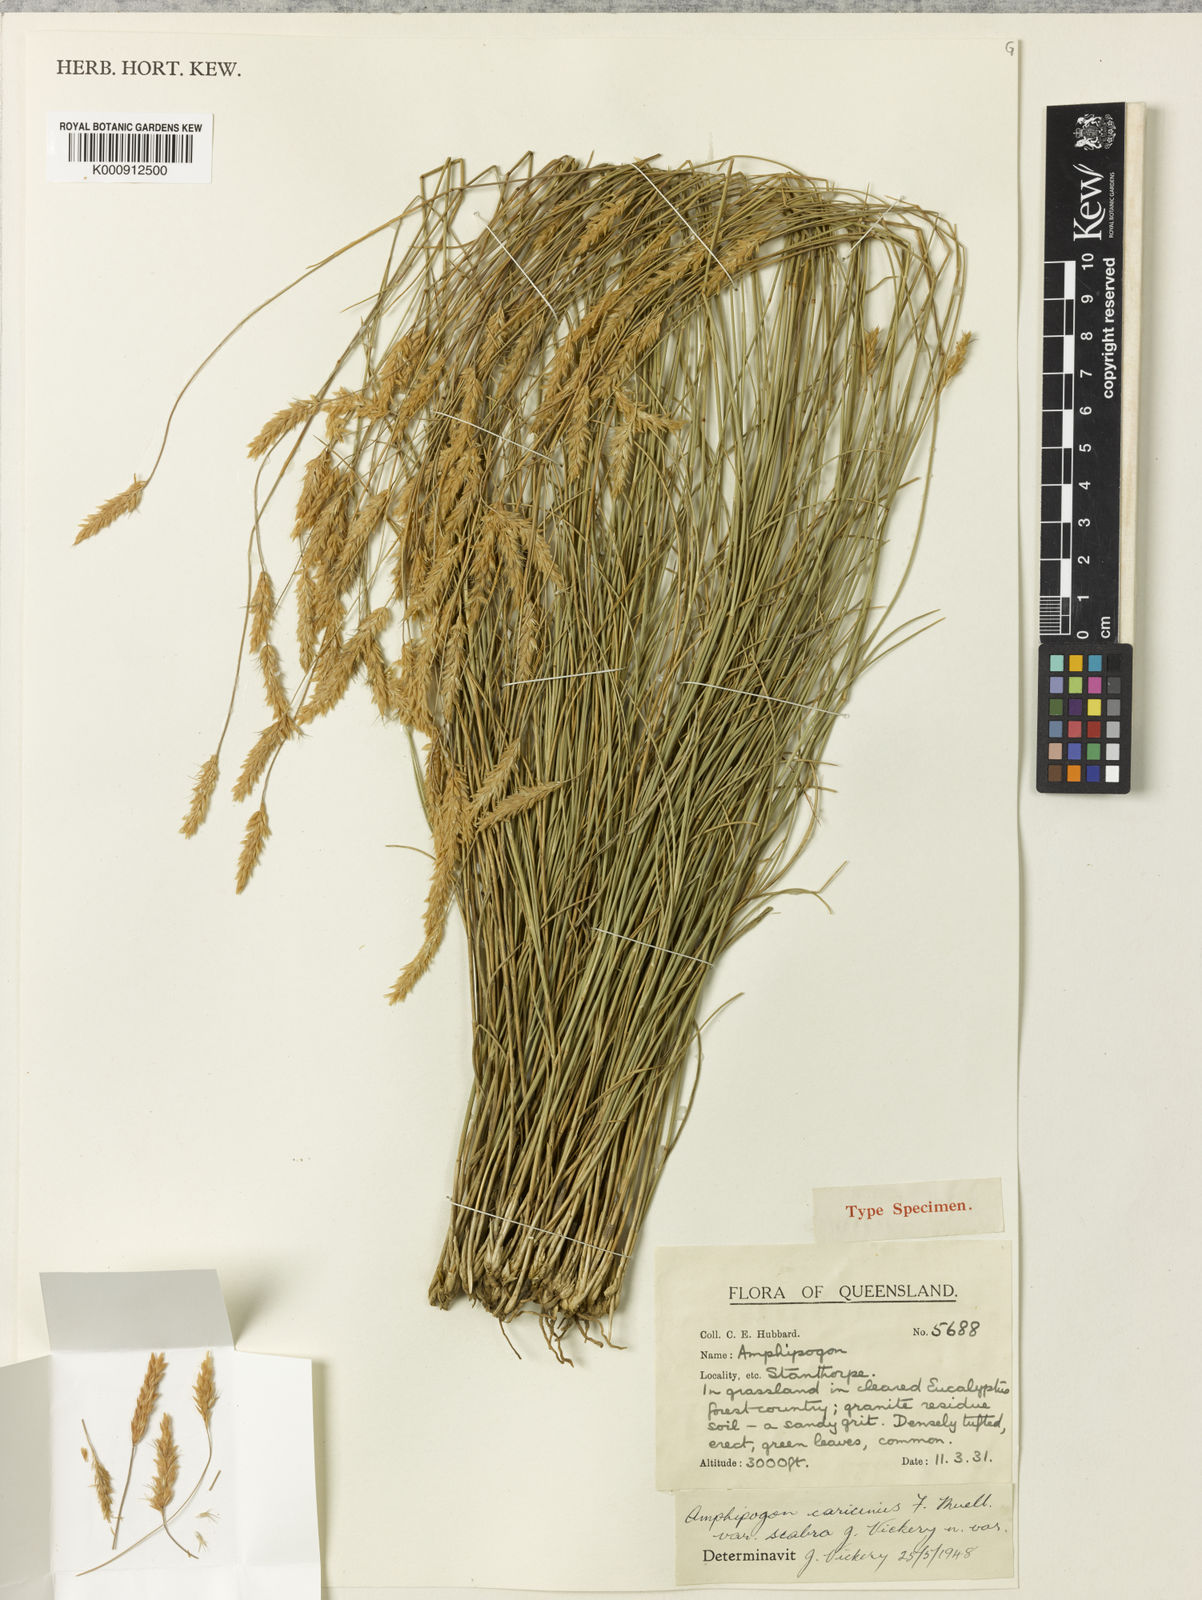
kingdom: Plantae
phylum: Tracheophyta
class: Liliopsida
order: Poales
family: Poaceae
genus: Amphipogon
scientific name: Amphipogon sericeus
